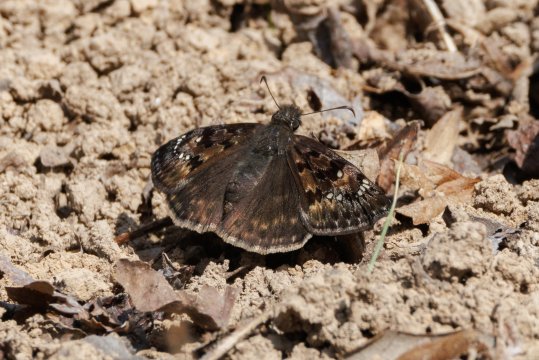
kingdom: Animalia
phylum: Arthropoda
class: Insecta
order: Lepidoptera
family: Hesperiidae
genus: Gesta
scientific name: Gesta
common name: Horace's Duskywing
